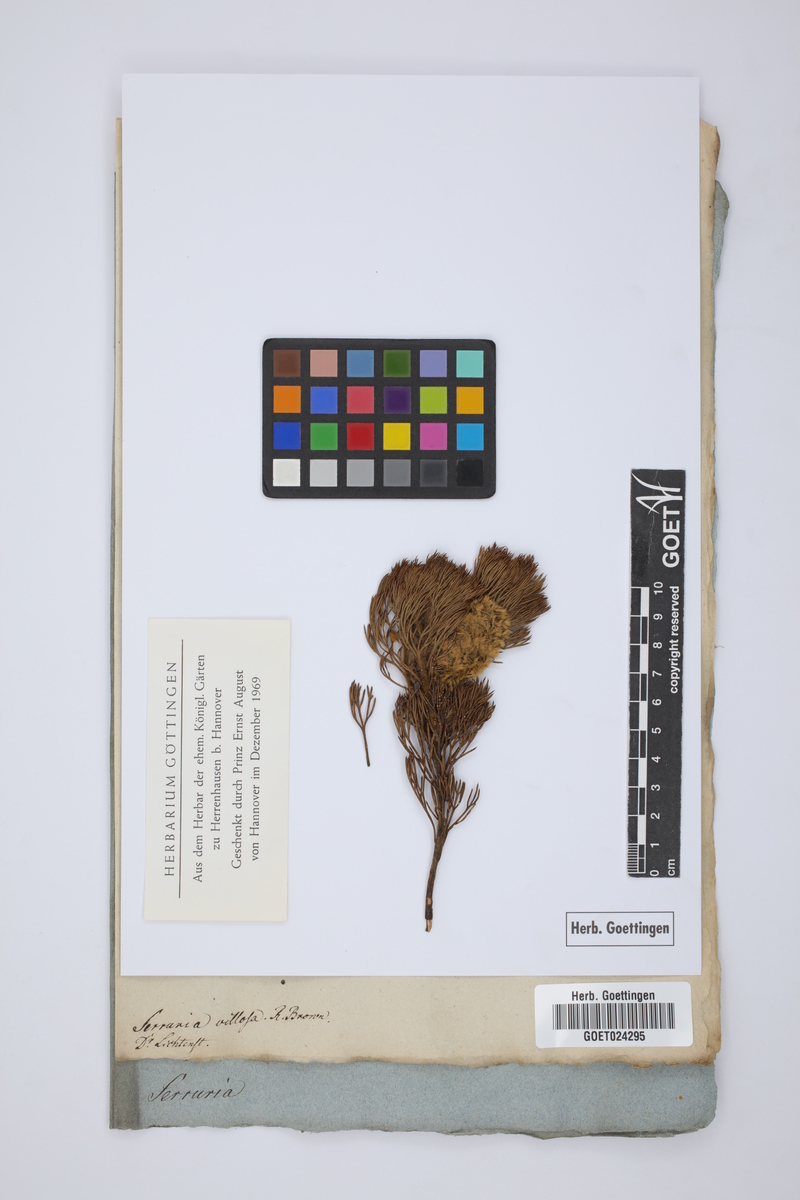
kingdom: Plantae
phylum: Tracheophyta
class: Magnoliopsida
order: Proteales
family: Proteaceae
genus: Serruria
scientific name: Serruria villosa
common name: Golden spiderhead
